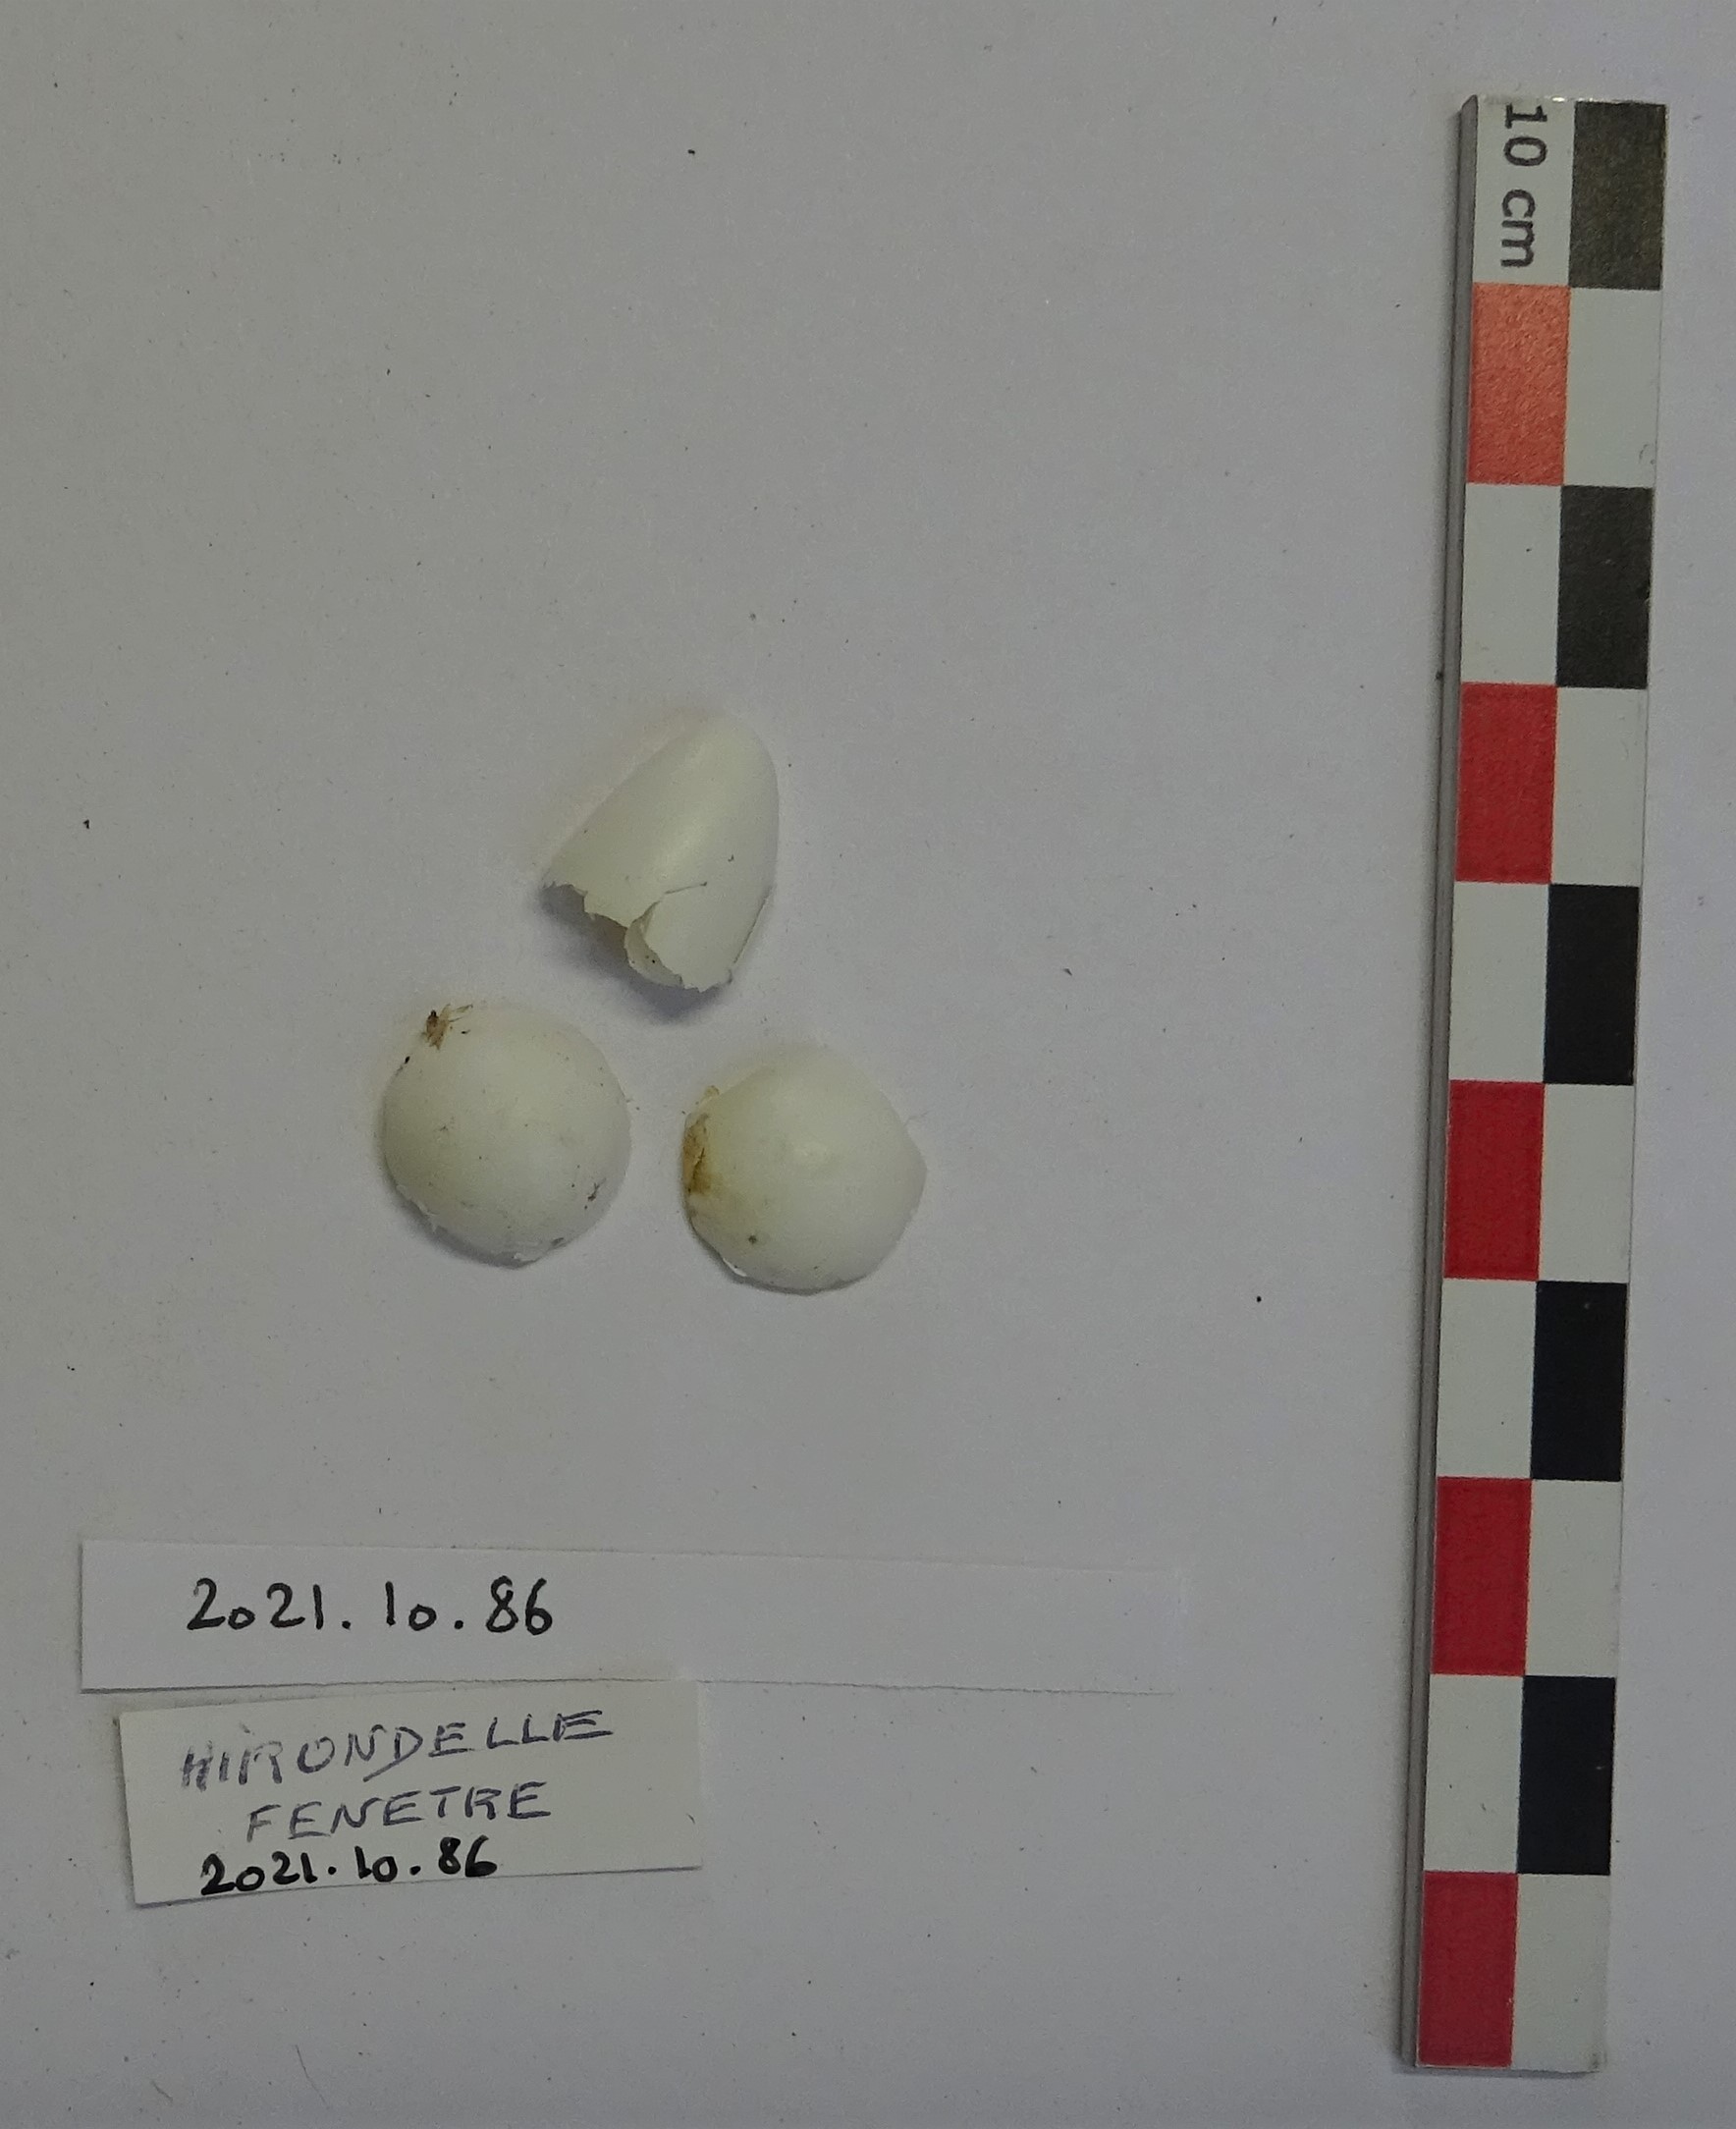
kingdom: Animalia
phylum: Chordata
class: Aves
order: Passeriformes
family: Hirundinidae
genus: Delichon
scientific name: Delichon urbicum
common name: Common house martin
